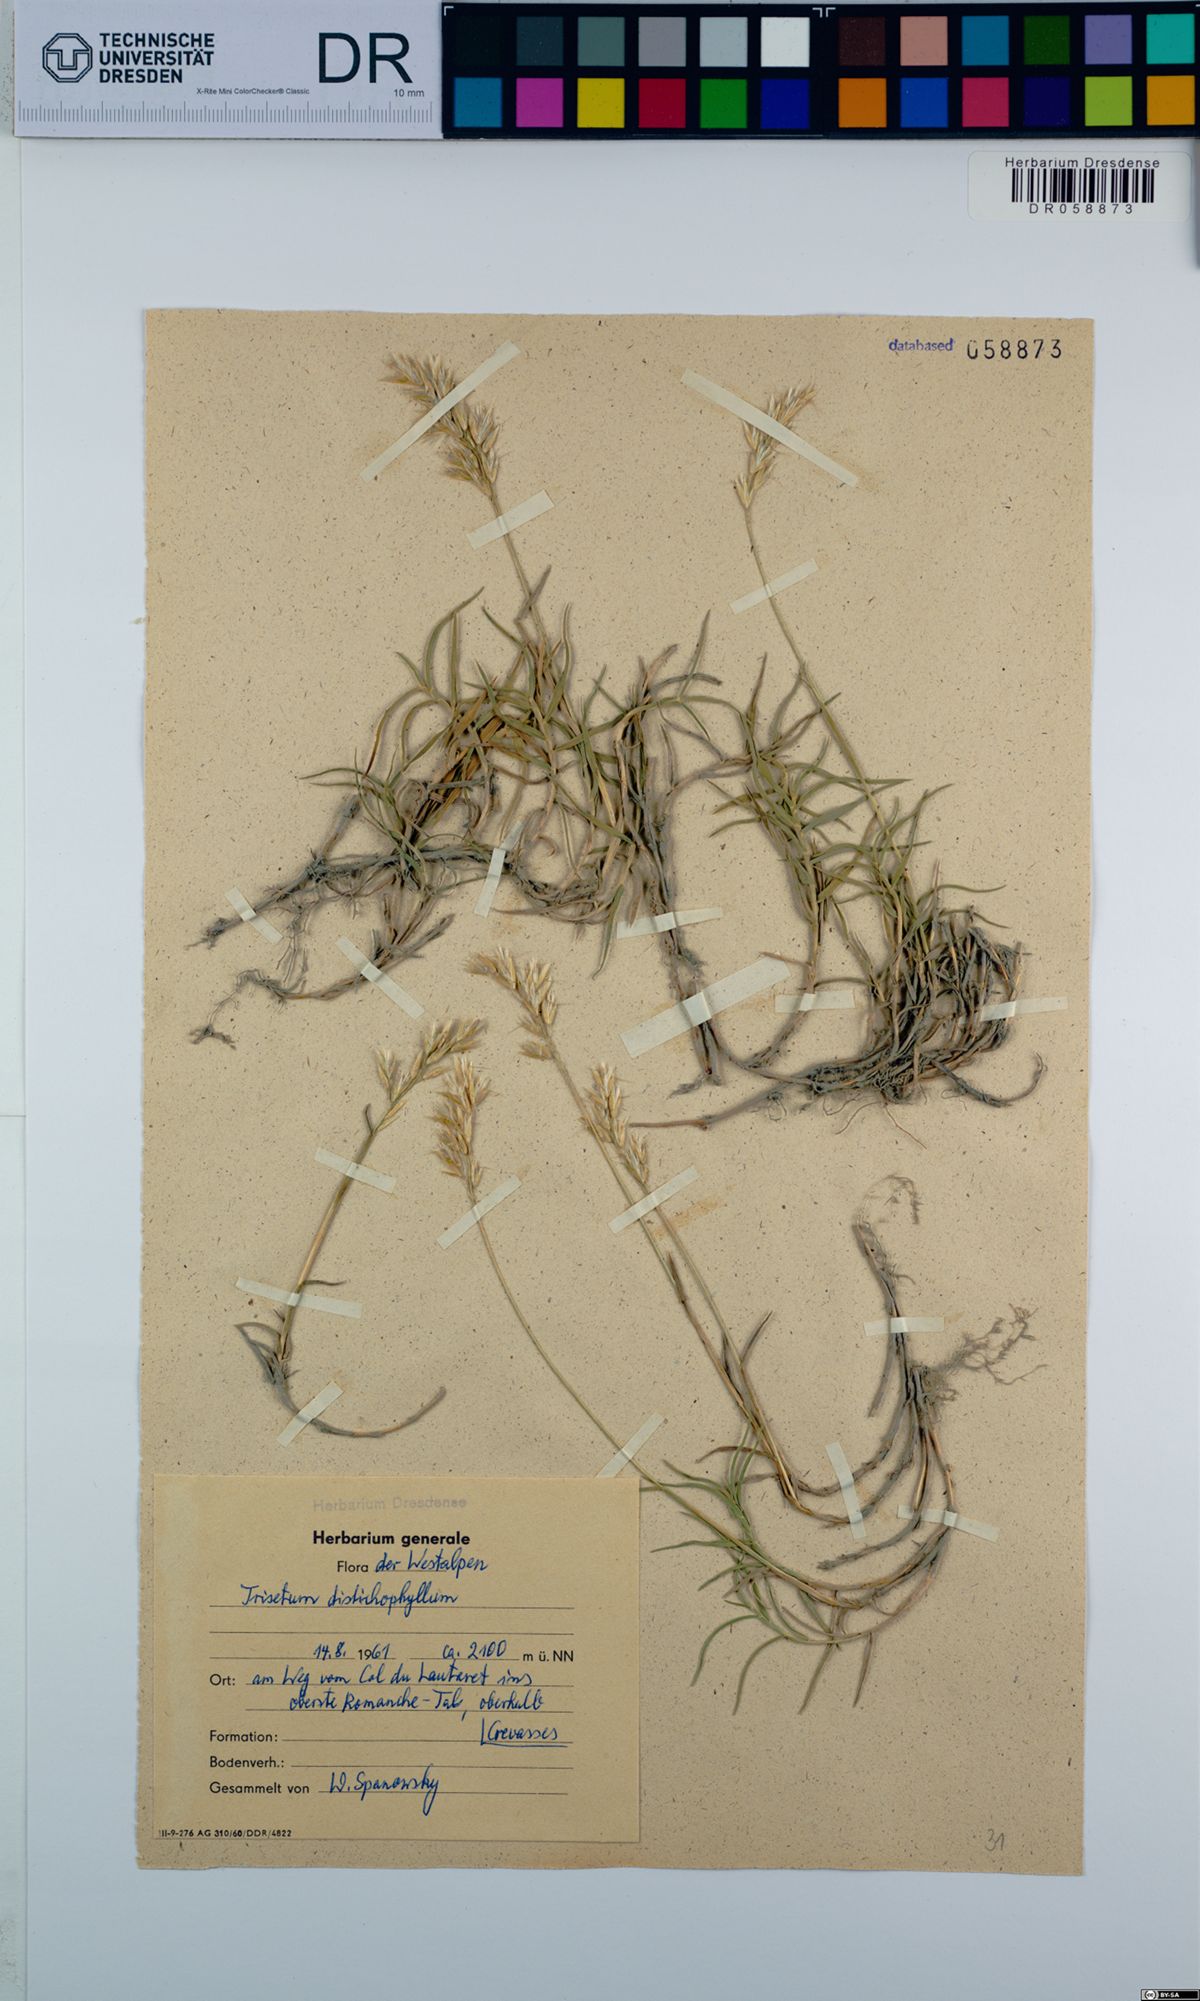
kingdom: Plantae
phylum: Tracheophyta
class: Liliopsida
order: Poales
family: Poaceae
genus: Acrospelion
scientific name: Acrospelion distichophyllum
